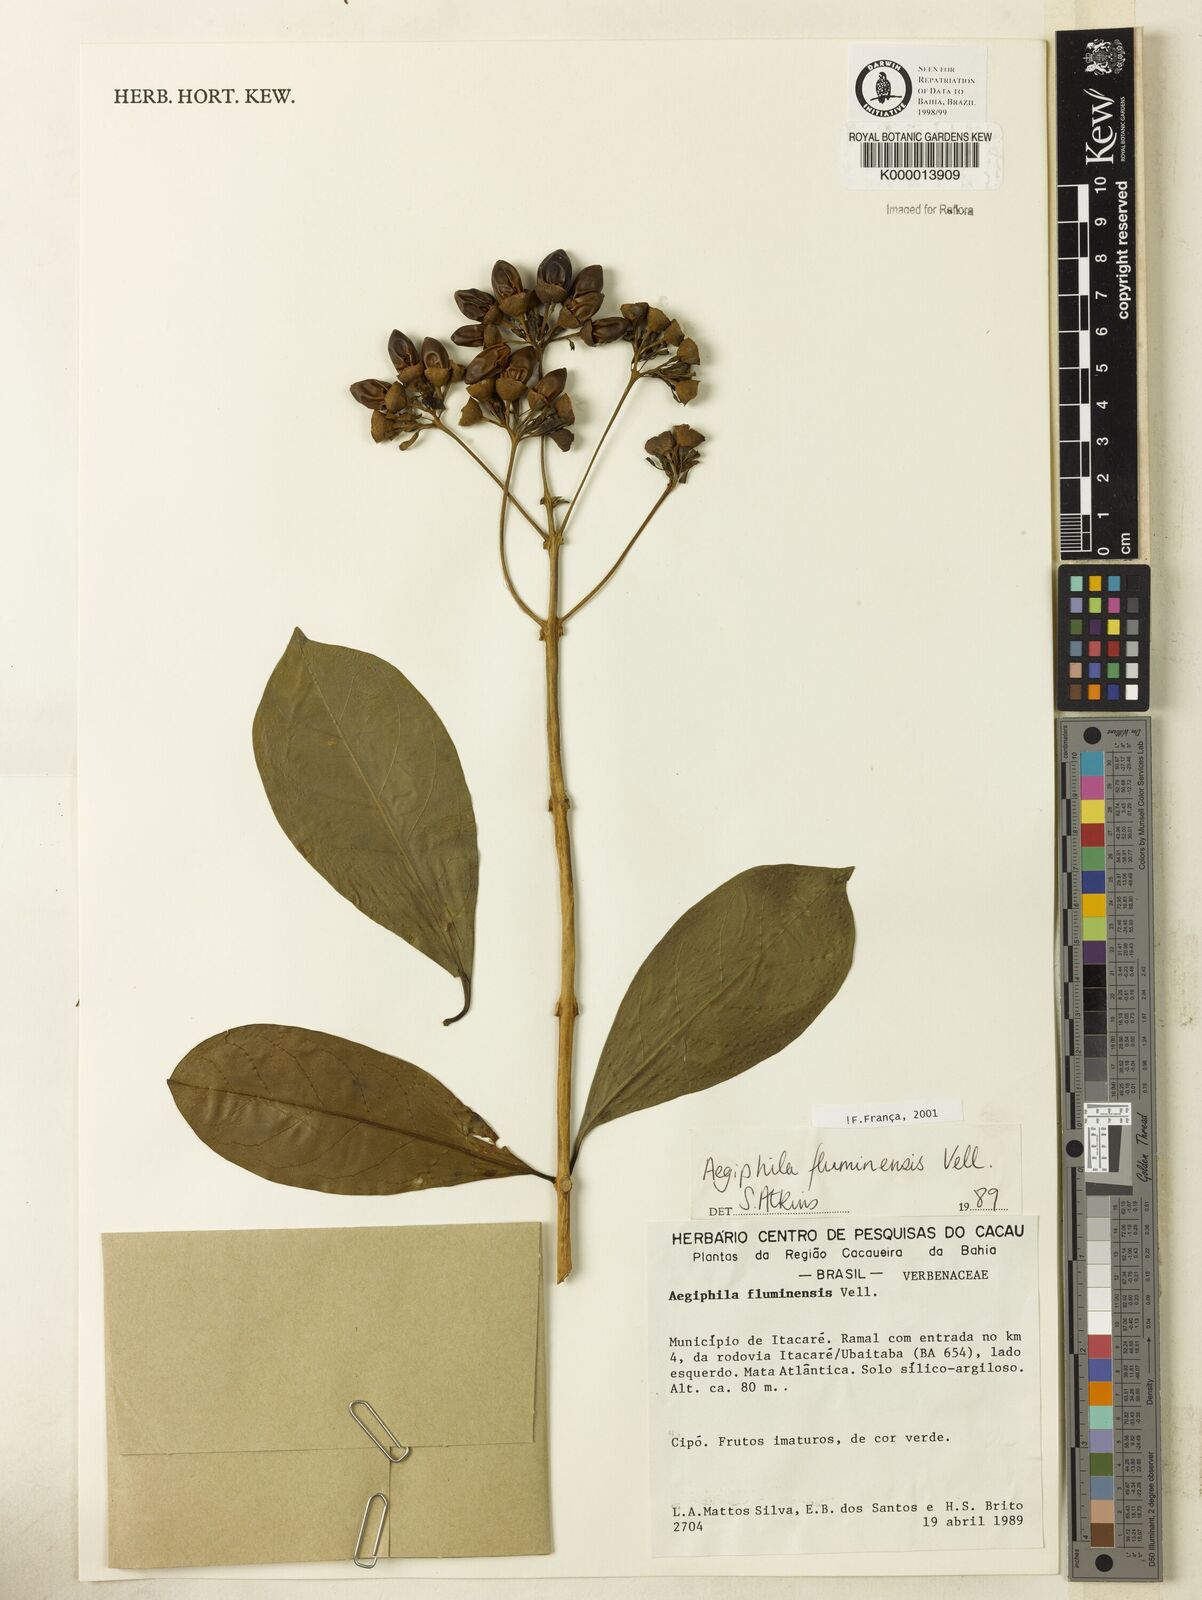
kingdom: Plantae
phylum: Tracheophyta
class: Magnoliopsida
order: Lamiales
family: Lamiaceae
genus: Aegiphila
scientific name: Aegiphila fluminensis
